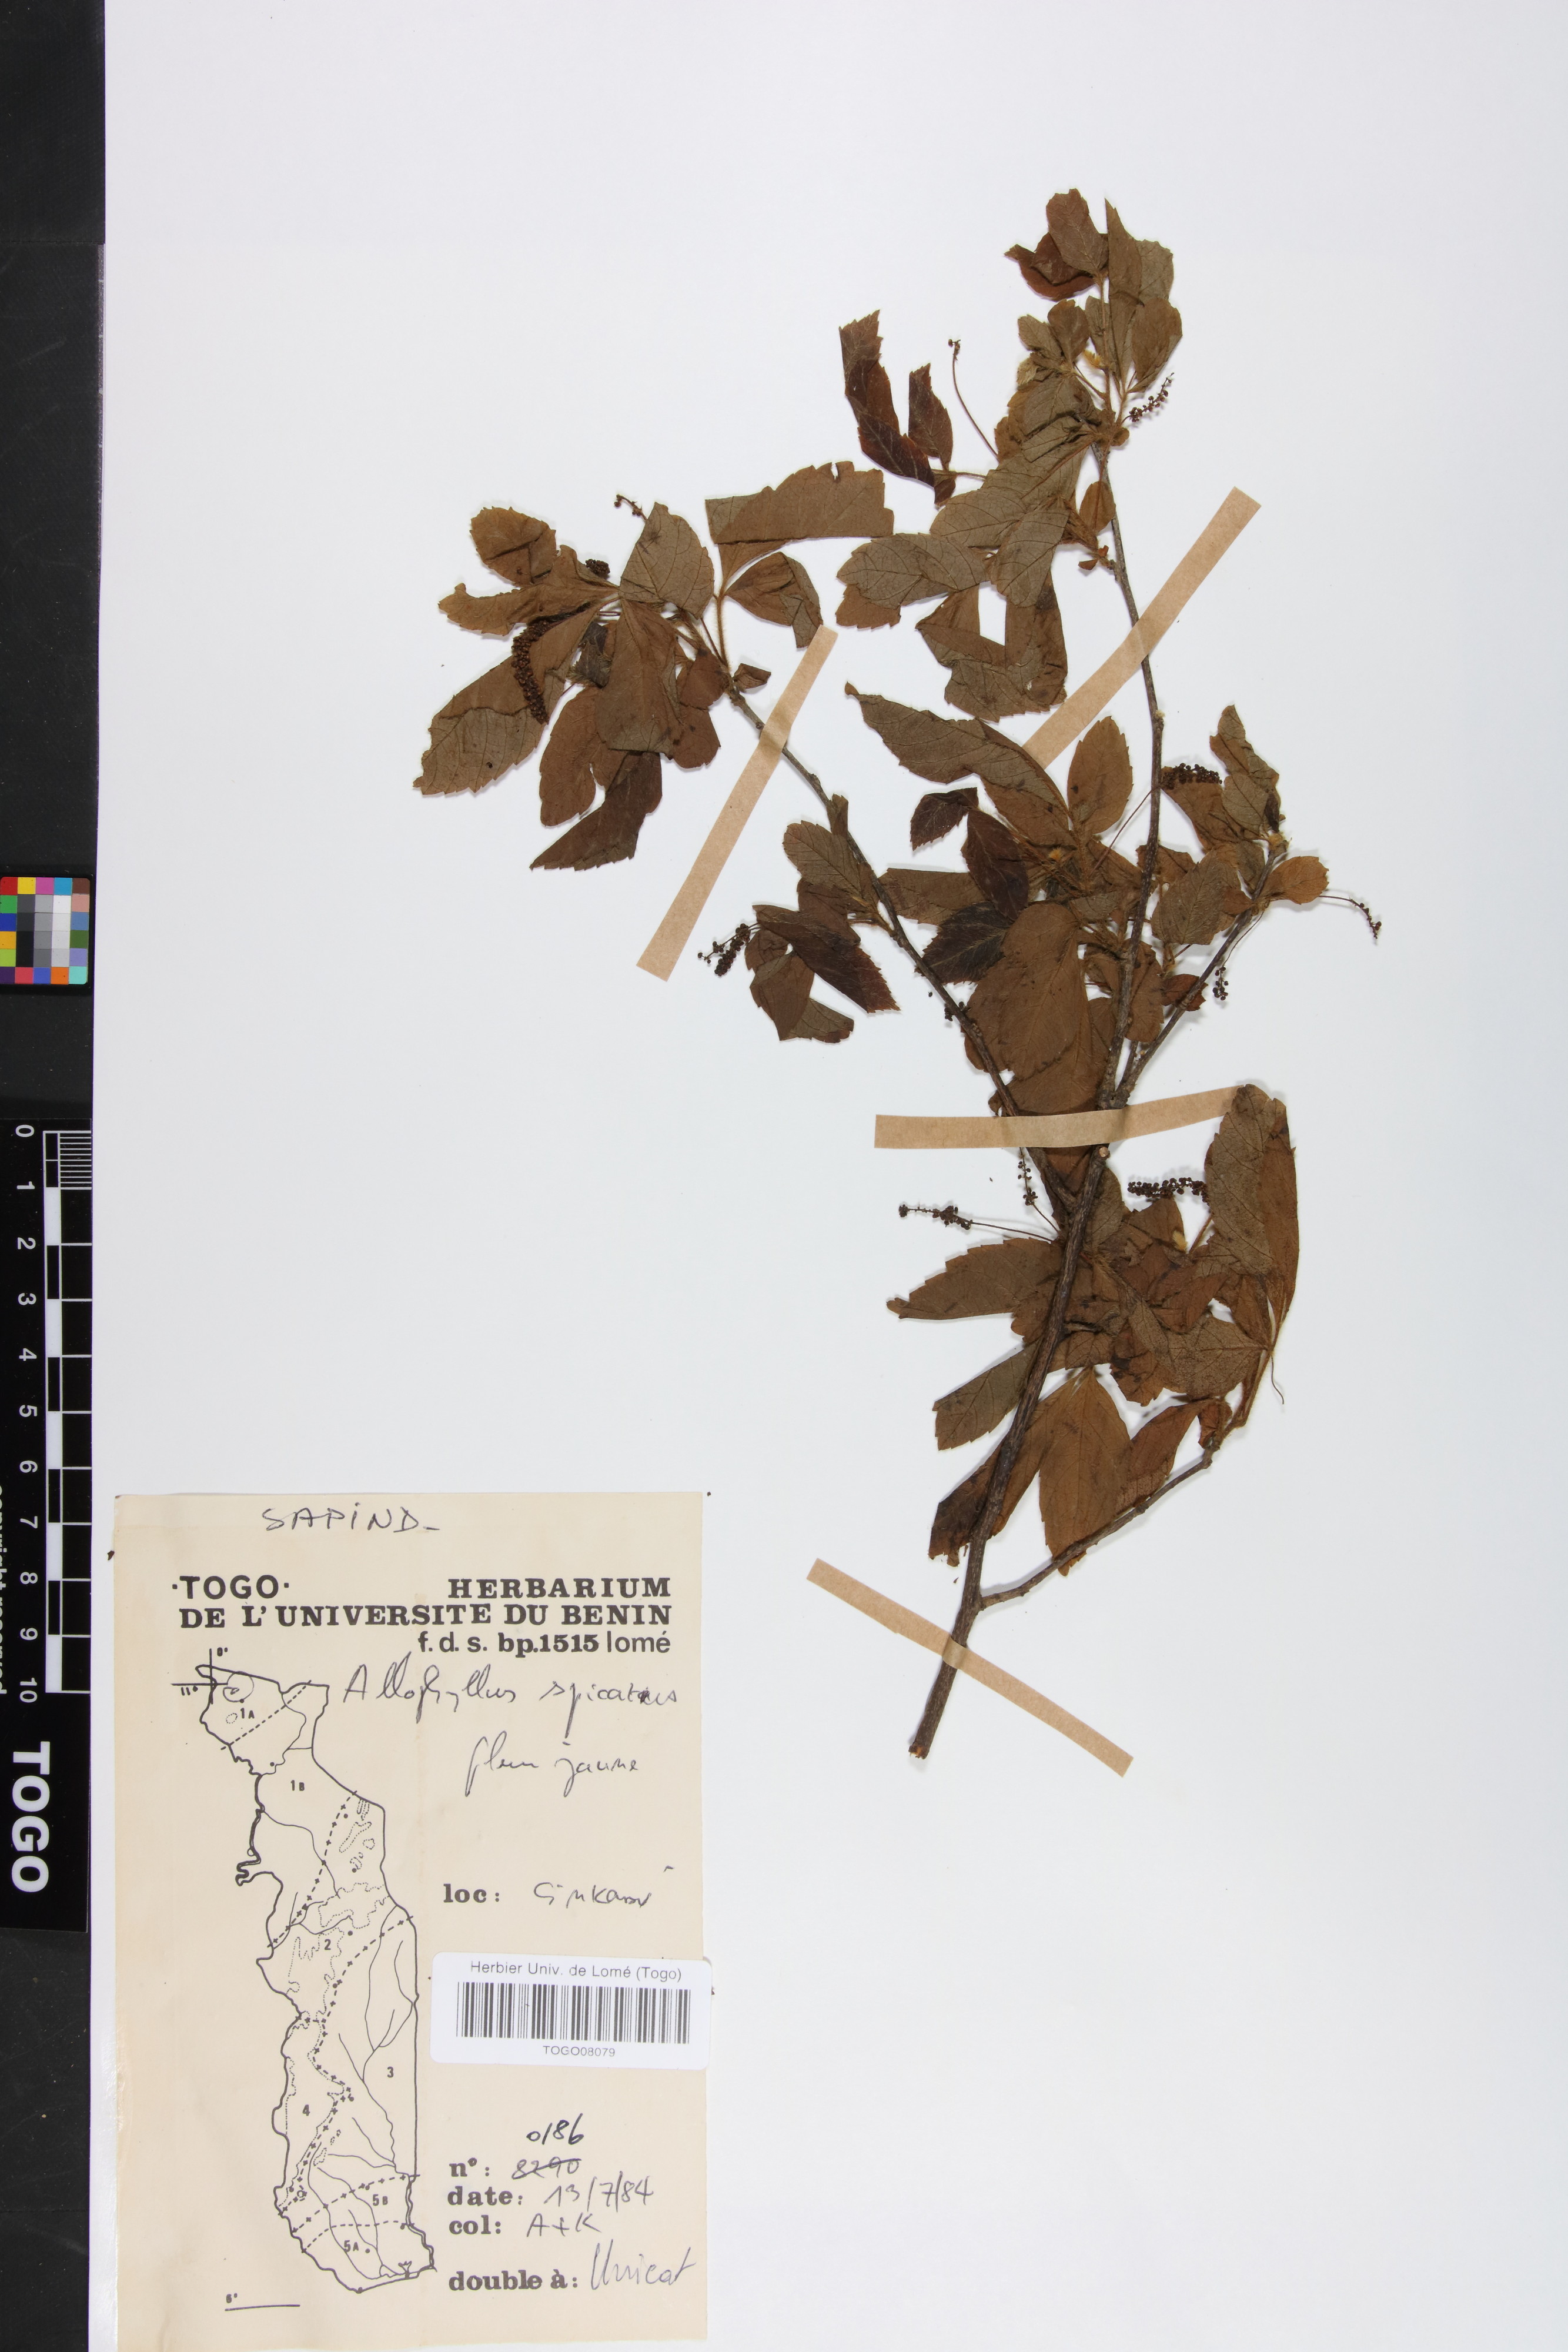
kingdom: Plantae
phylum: Tracheophyta
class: Magnoliopsida
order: Sapindales
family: Sapindaceae
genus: Allophylus
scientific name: Allophylus spicatus
